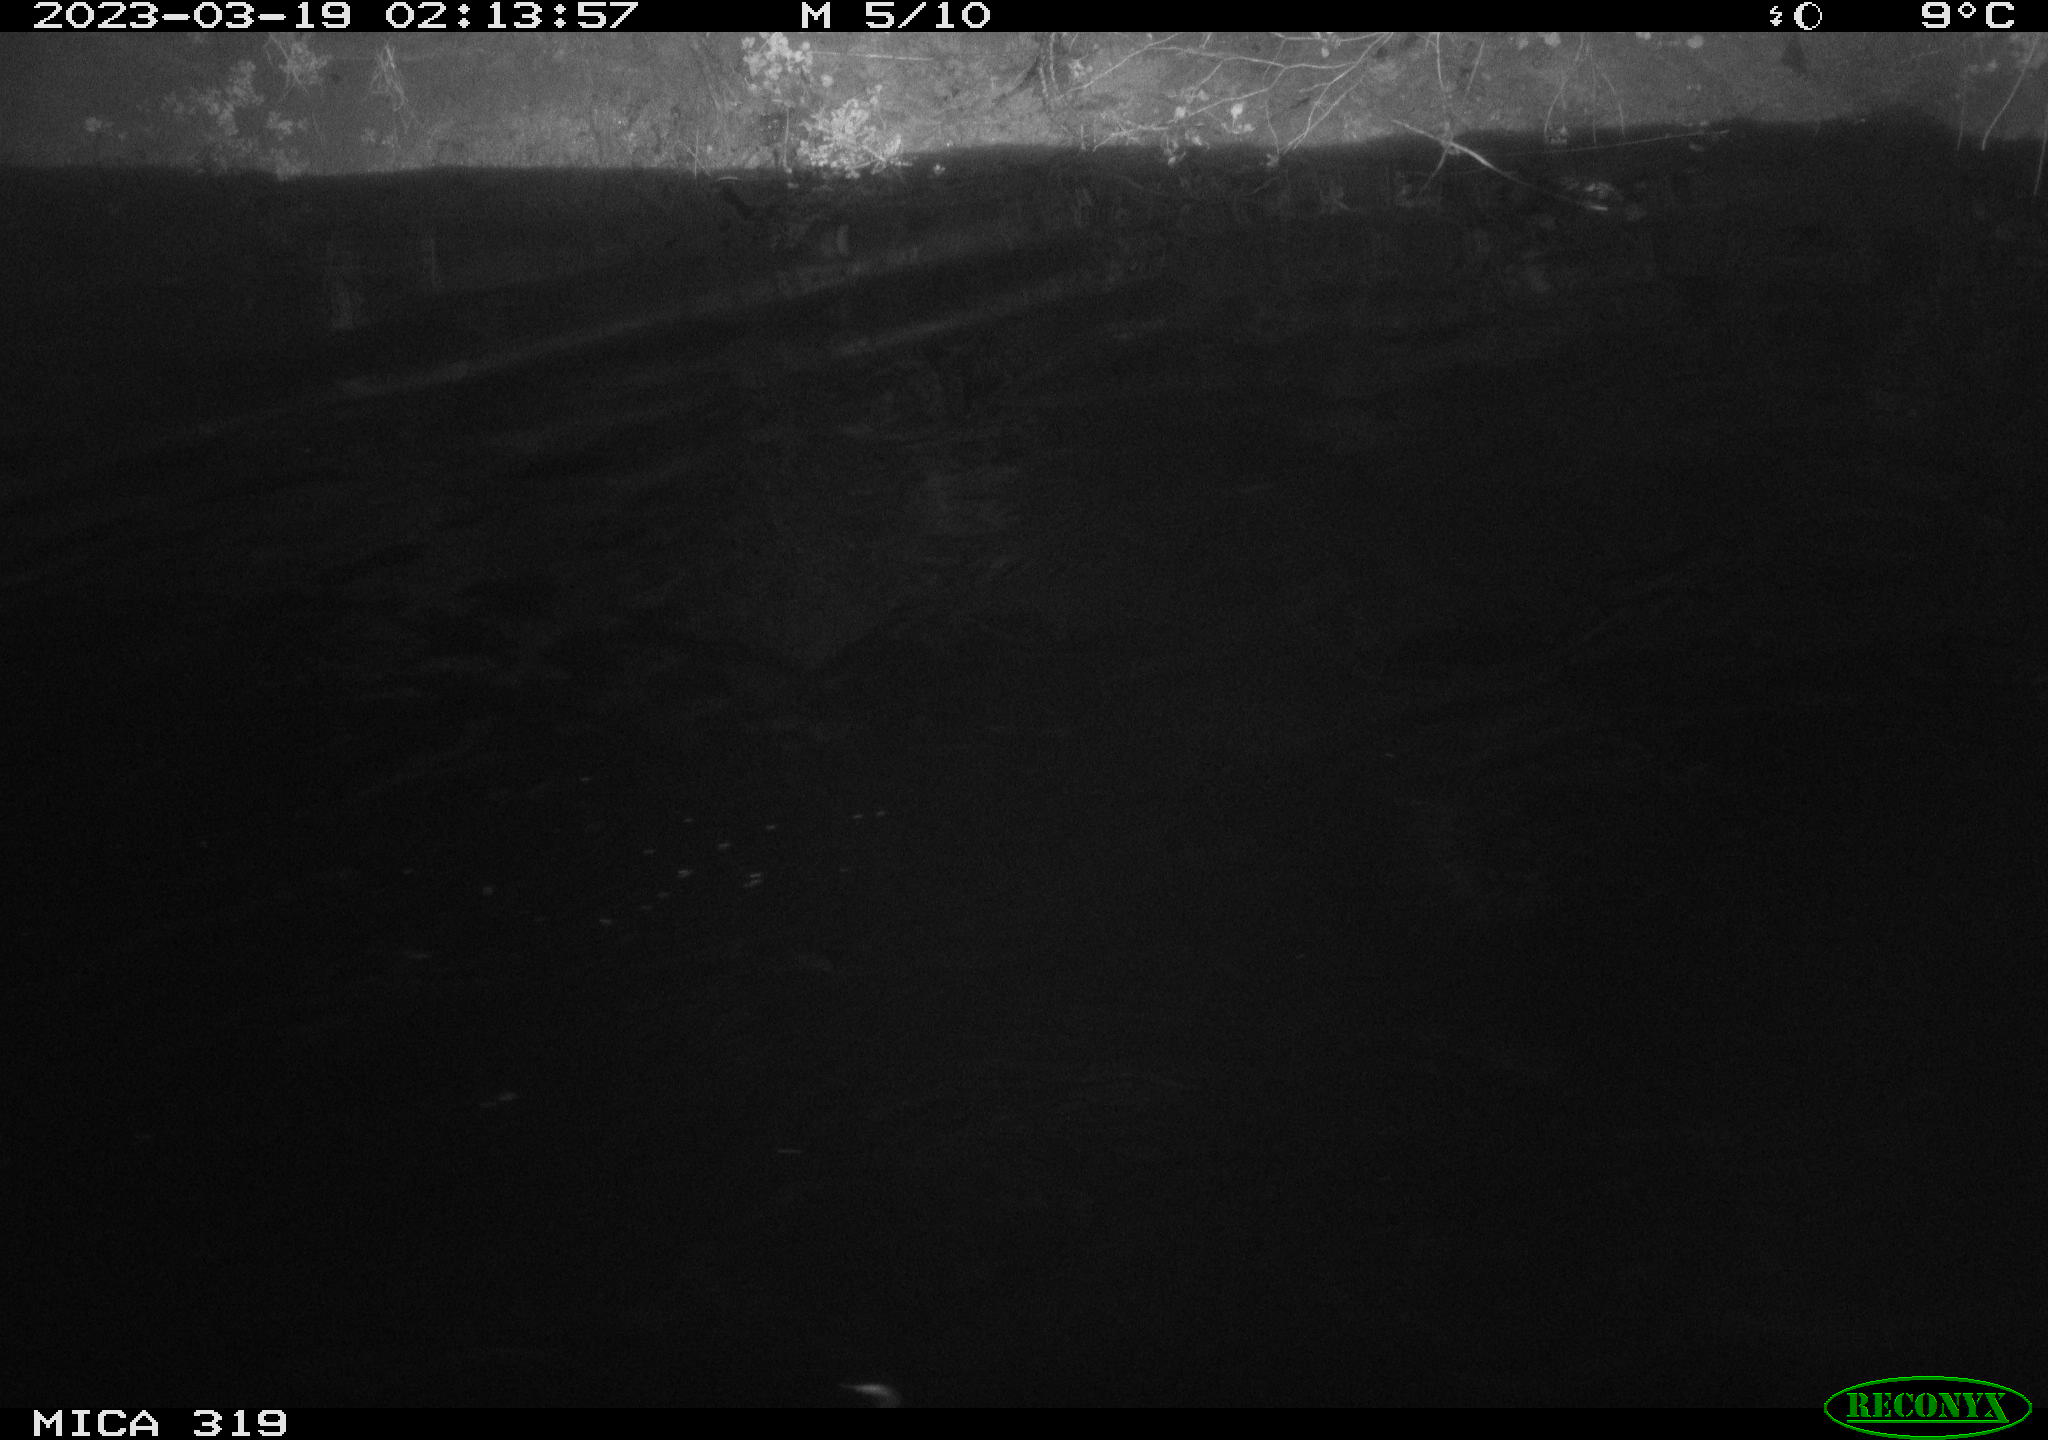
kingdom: Animalia
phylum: Chordata
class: Aves
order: Anseriformes
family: Anatidae
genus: Anas
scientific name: Anas
